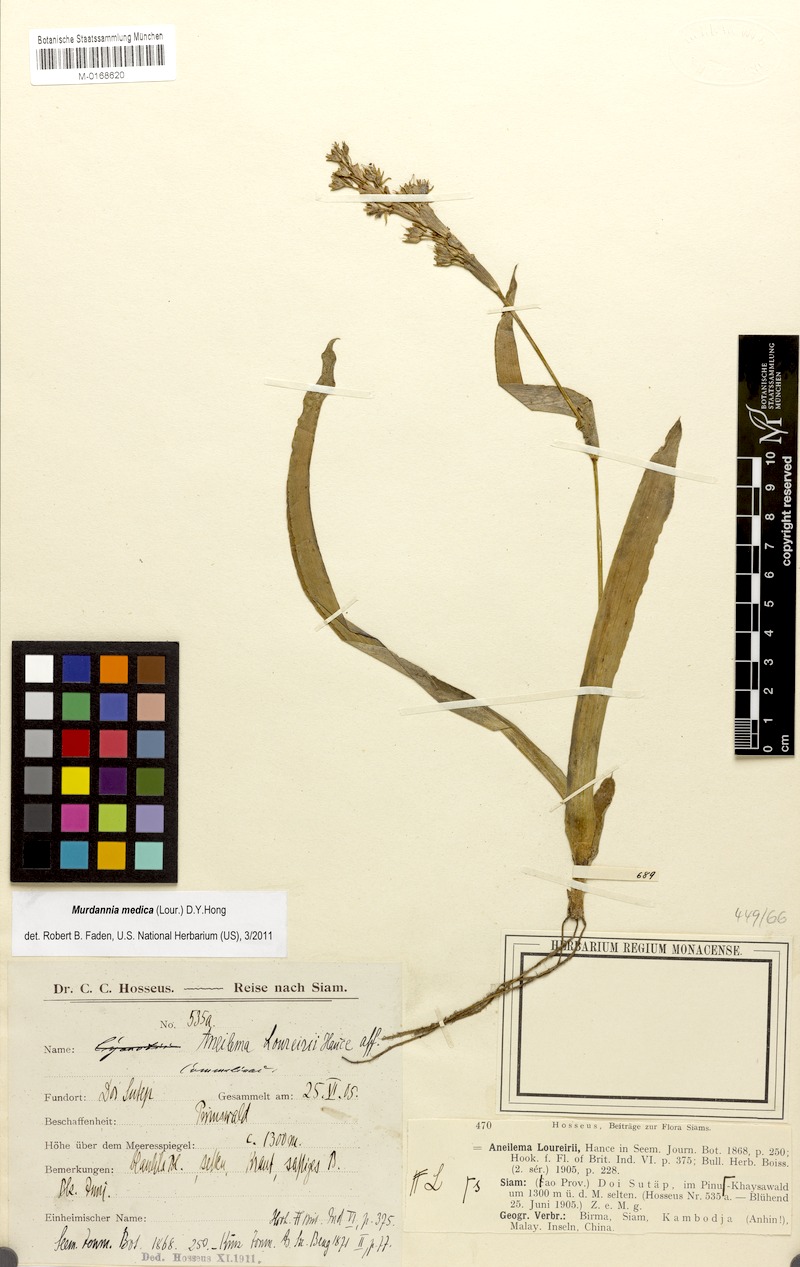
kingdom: Plantae
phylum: Tracheophyta
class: Liliopsida
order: Commelinales
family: Commelinaceae
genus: Murdannia
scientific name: Murdannia medica
